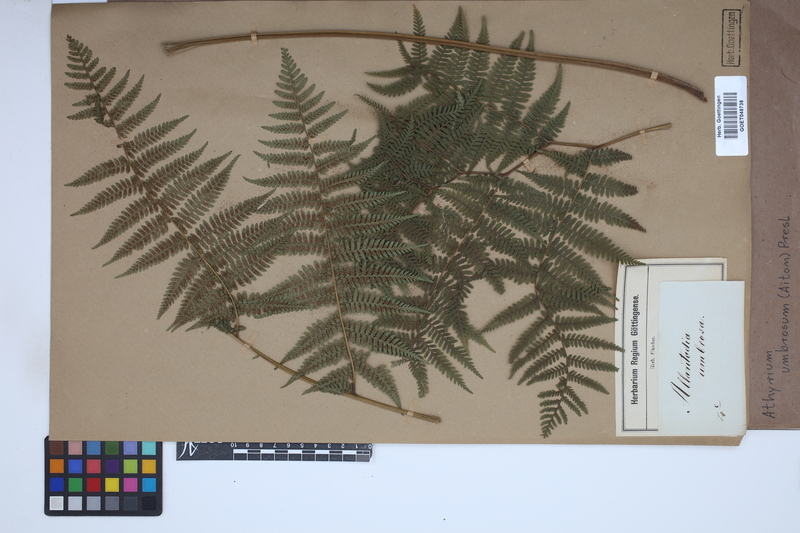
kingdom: Plantae
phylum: Tracheophyta
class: Polypodiopsida
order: Polypodiales
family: Athyriaceae
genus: Diplazium
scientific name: Diplazium caudatum
